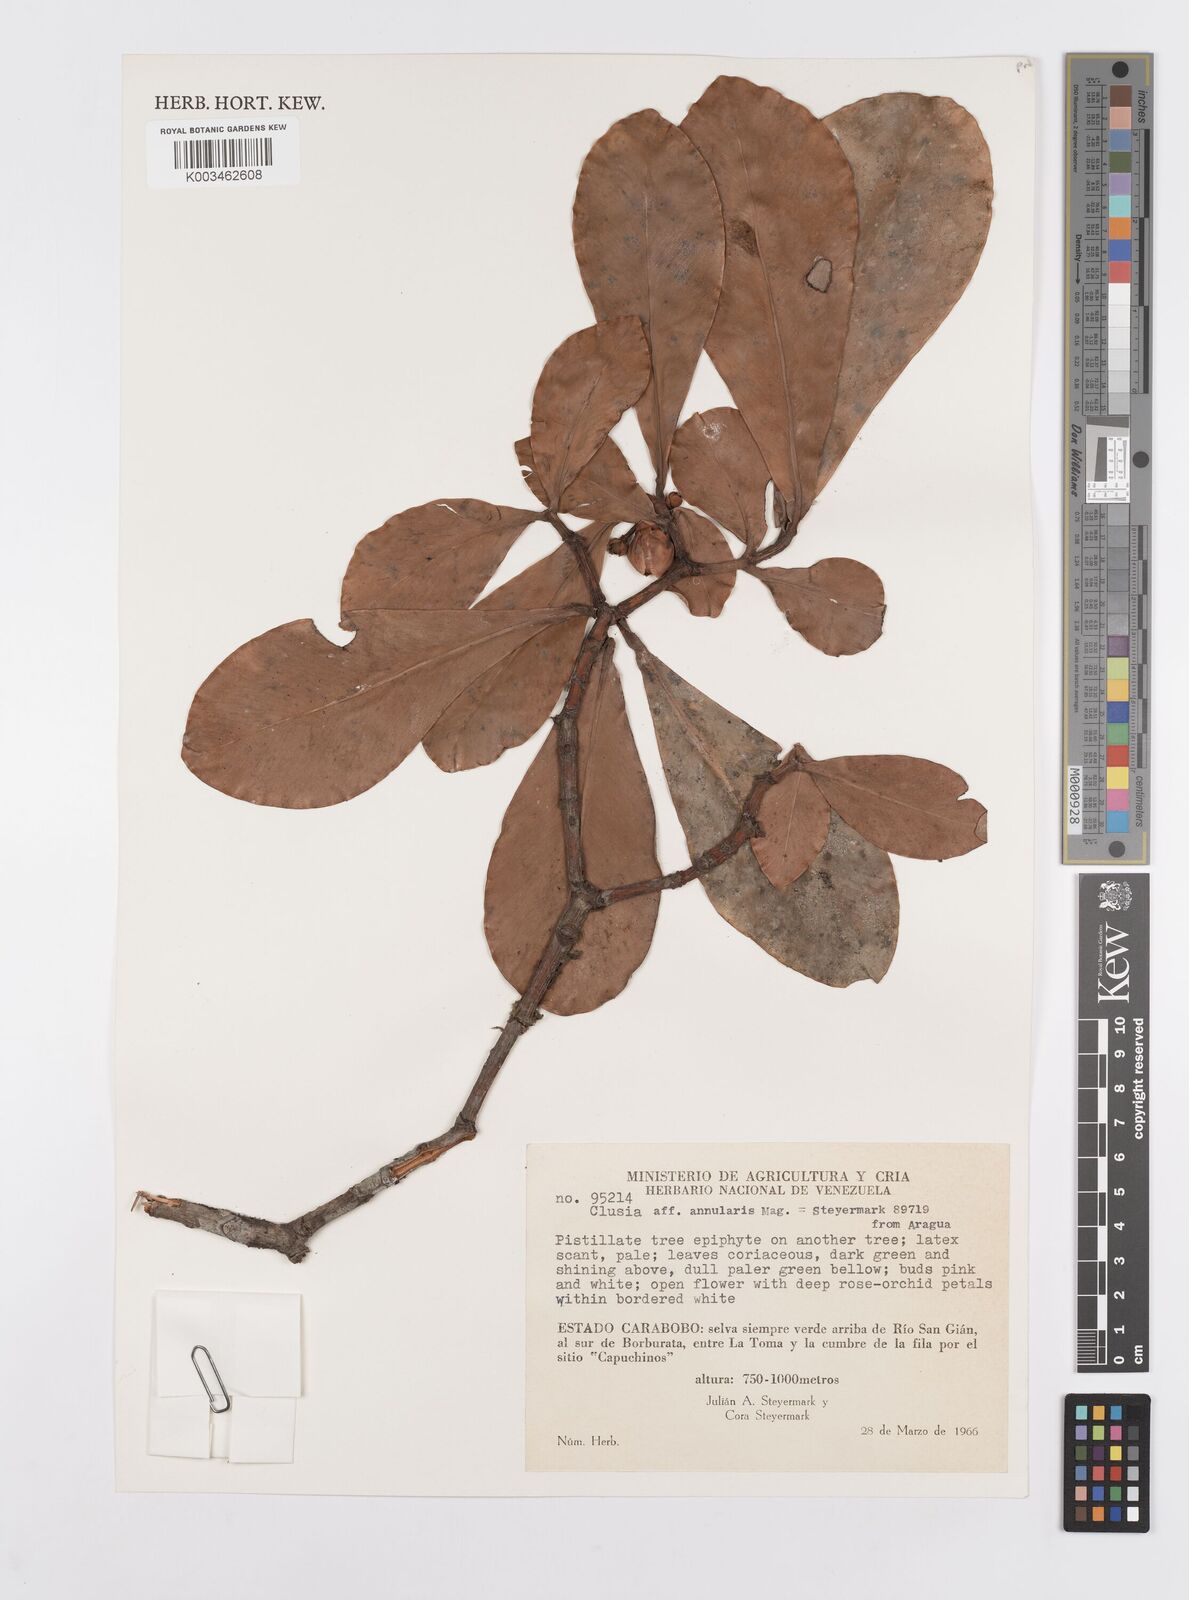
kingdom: Plantae
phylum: Tracheophyta
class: Magnoliopsida
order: Malpighiales
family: Clusiaceae
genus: Clusia
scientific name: Clusia annularis
